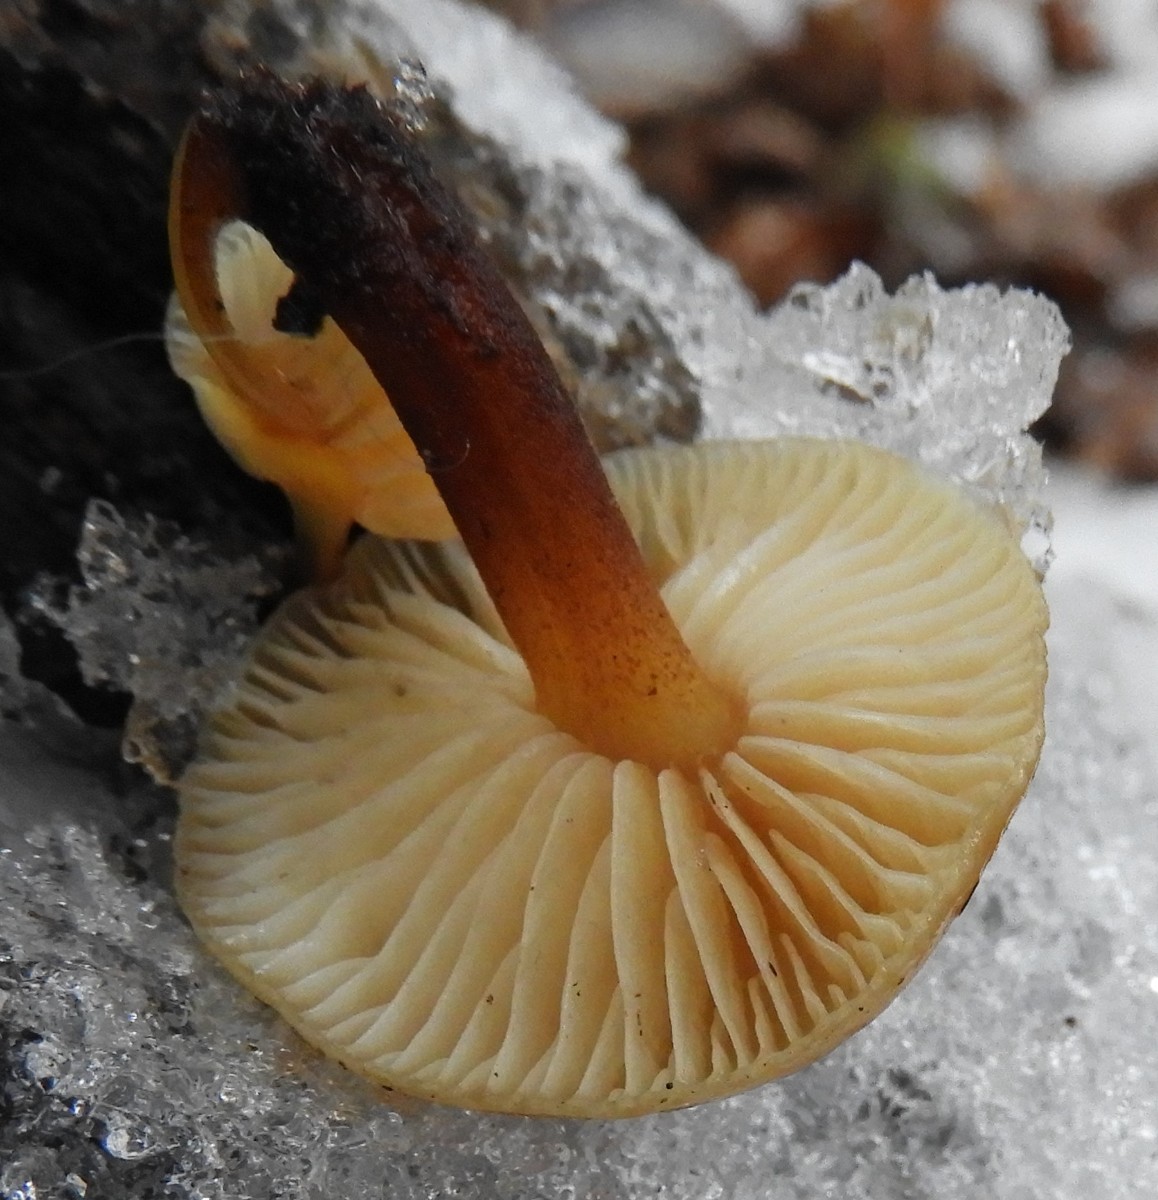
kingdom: Fungi
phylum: Basidiomycota
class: Agaricomycetes
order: Agaricales
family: Physalacriaceae
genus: Flammulina
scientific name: Flammulina
